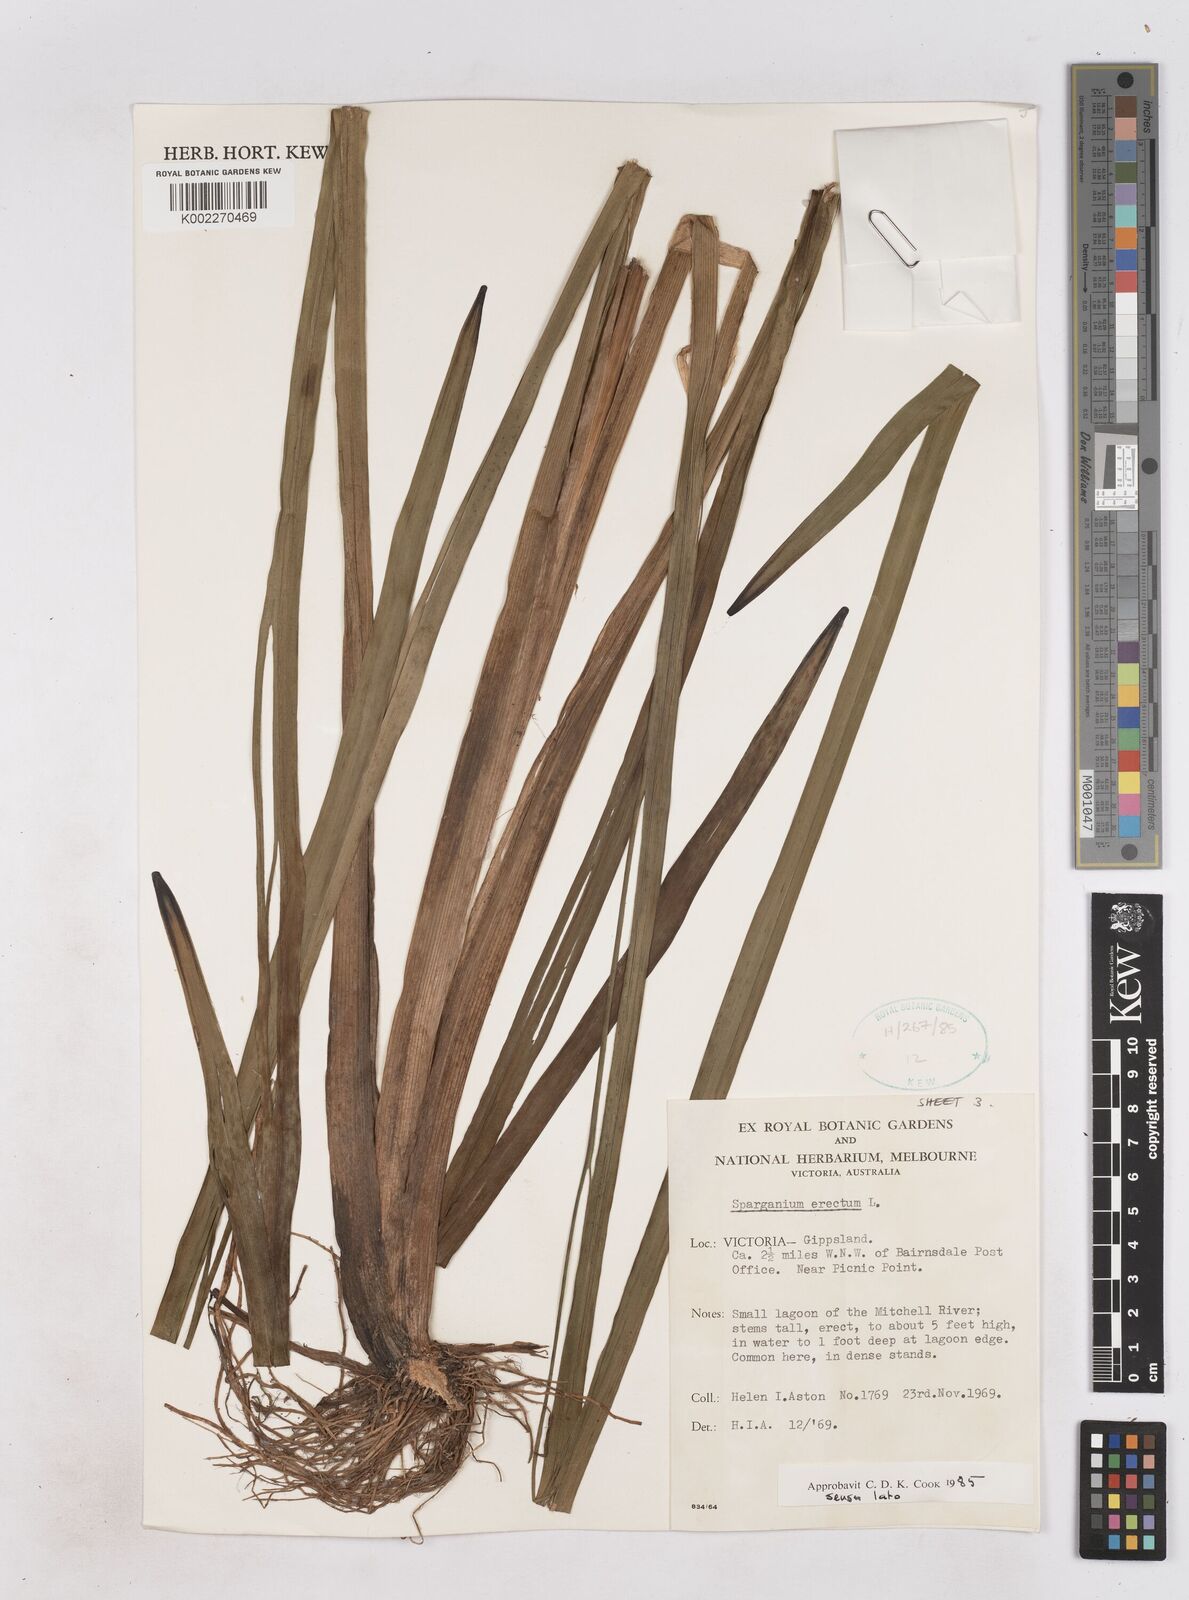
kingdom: Plantae
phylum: Tracheophyta
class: Liliopsida
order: Poales
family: Typhaceae
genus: Sparganium
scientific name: Sparganium erectum
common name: Branched bur-reed
